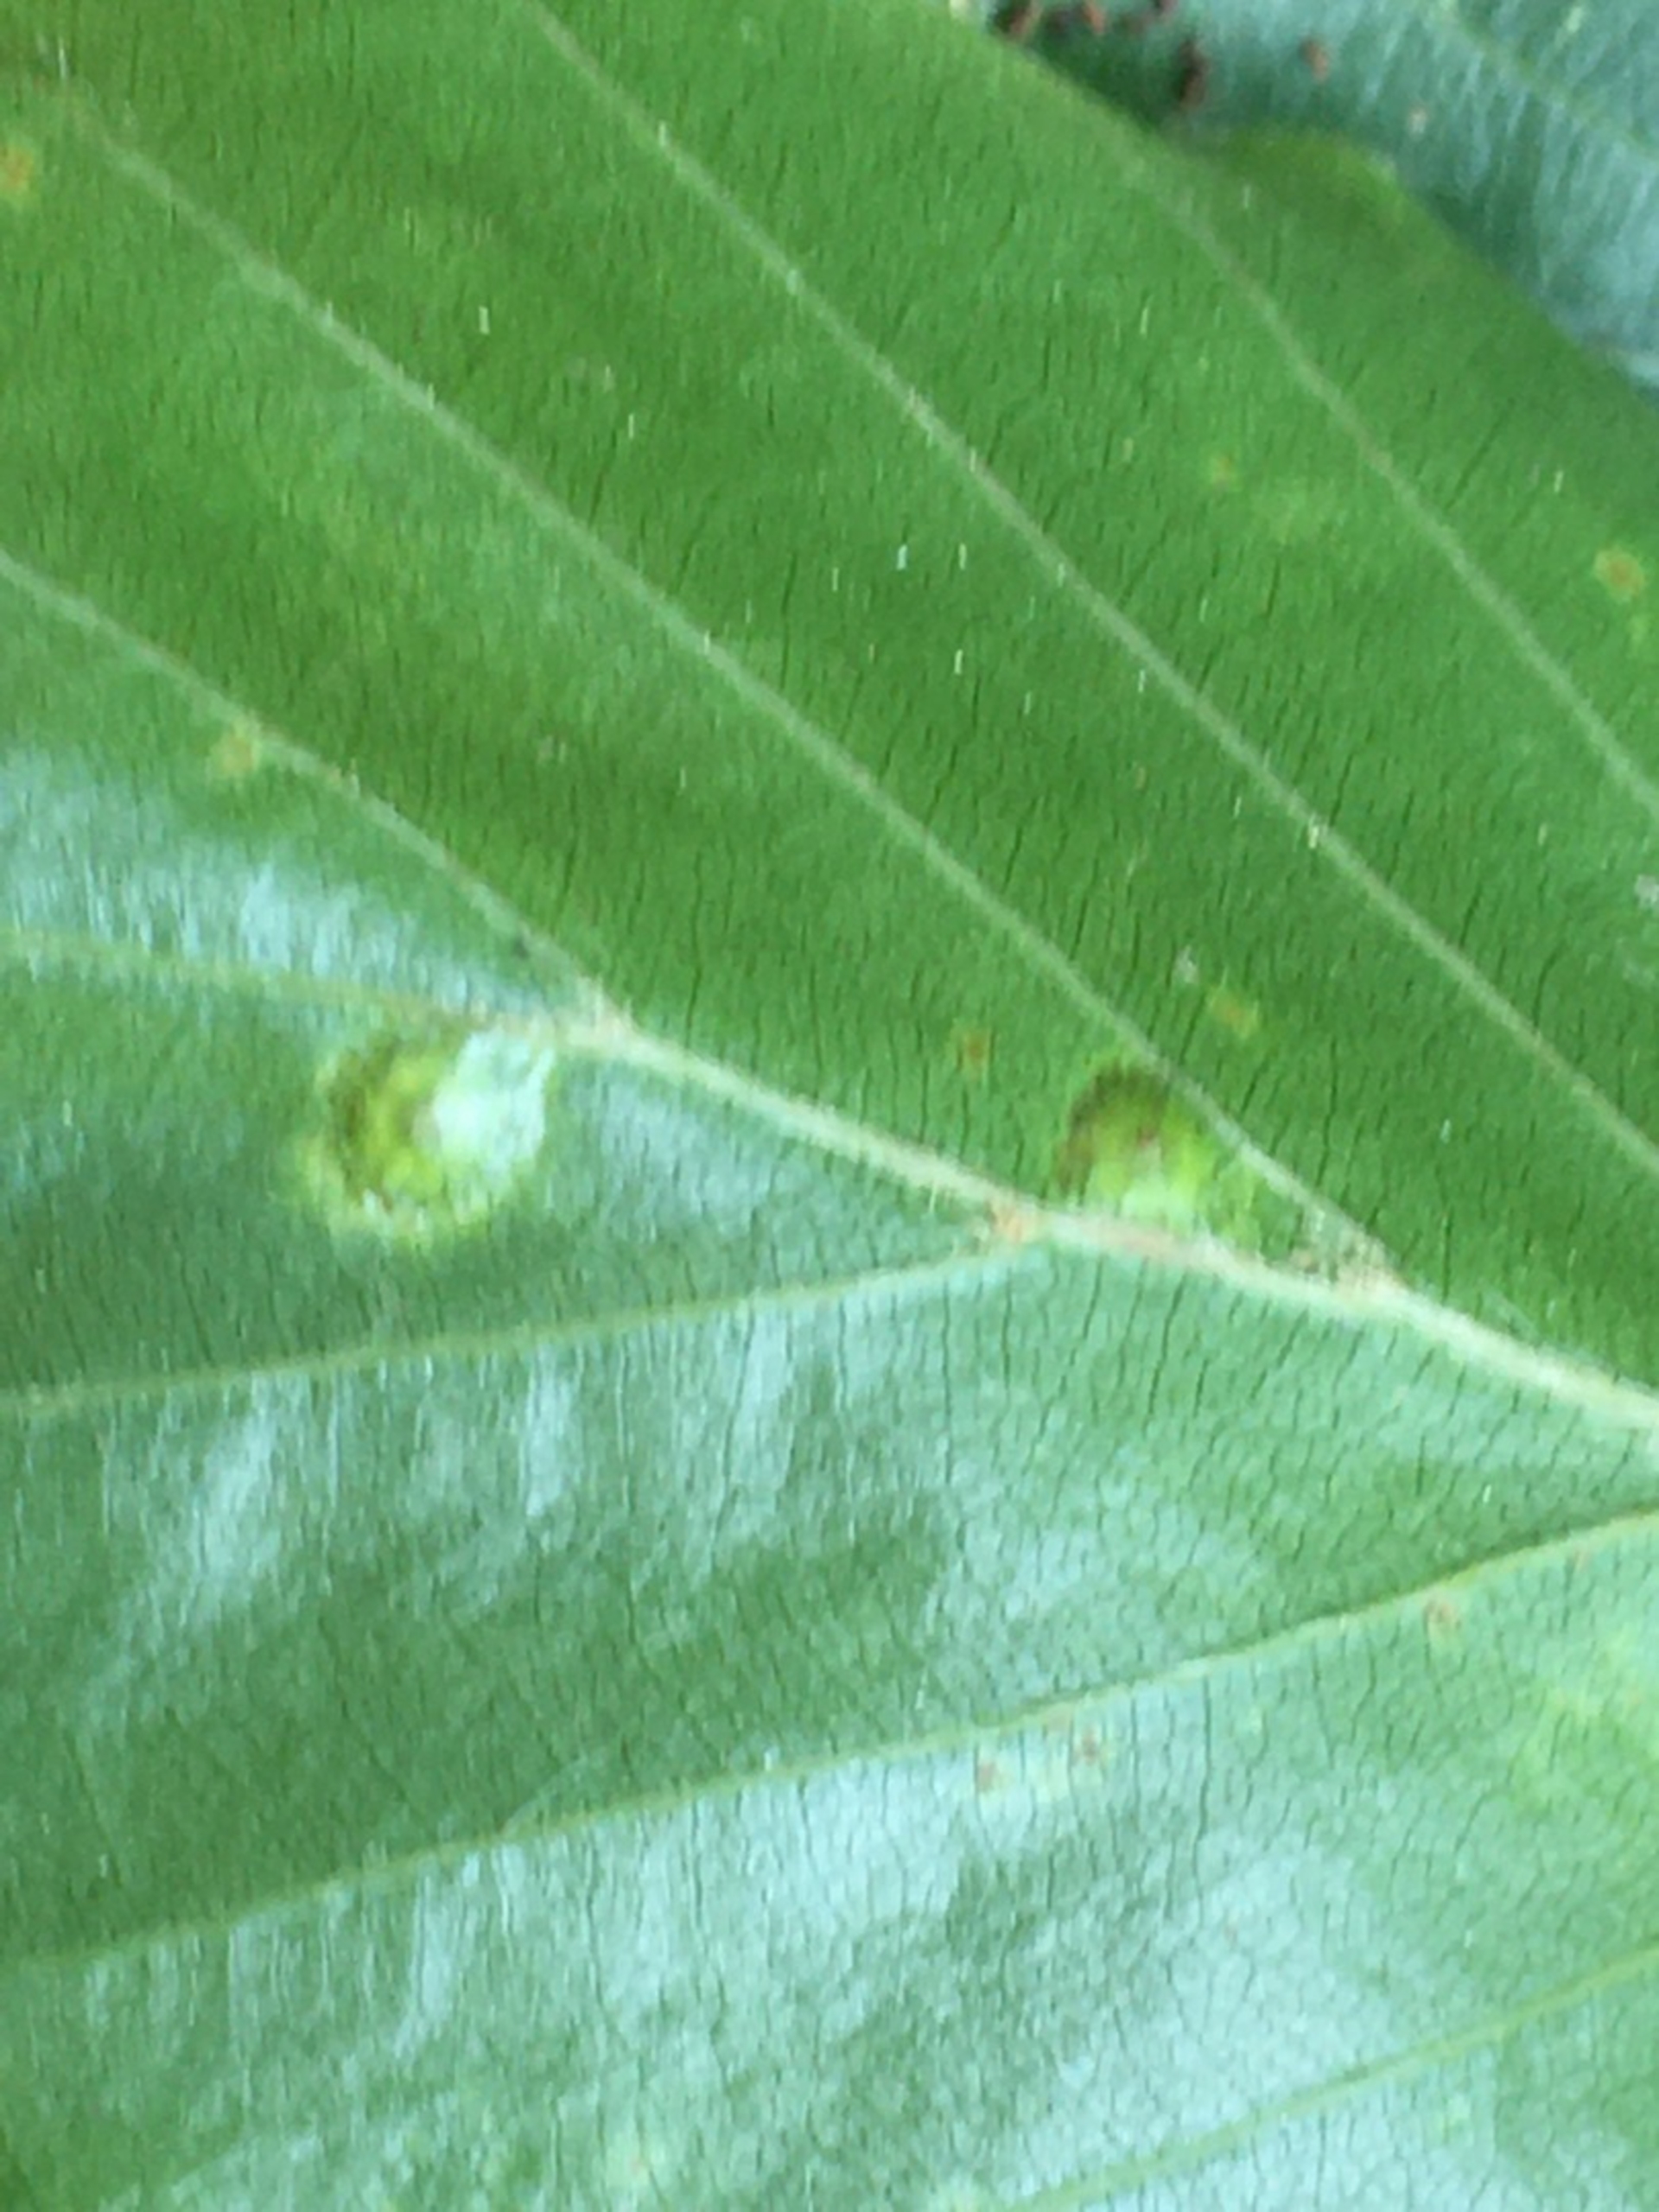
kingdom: Animalia
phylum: Arthropoda
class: Insecta
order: Diptera
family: Cecidomyiidae
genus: Hartigiola
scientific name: Hartigiola annulipes
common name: Skovtroldegalmyg
